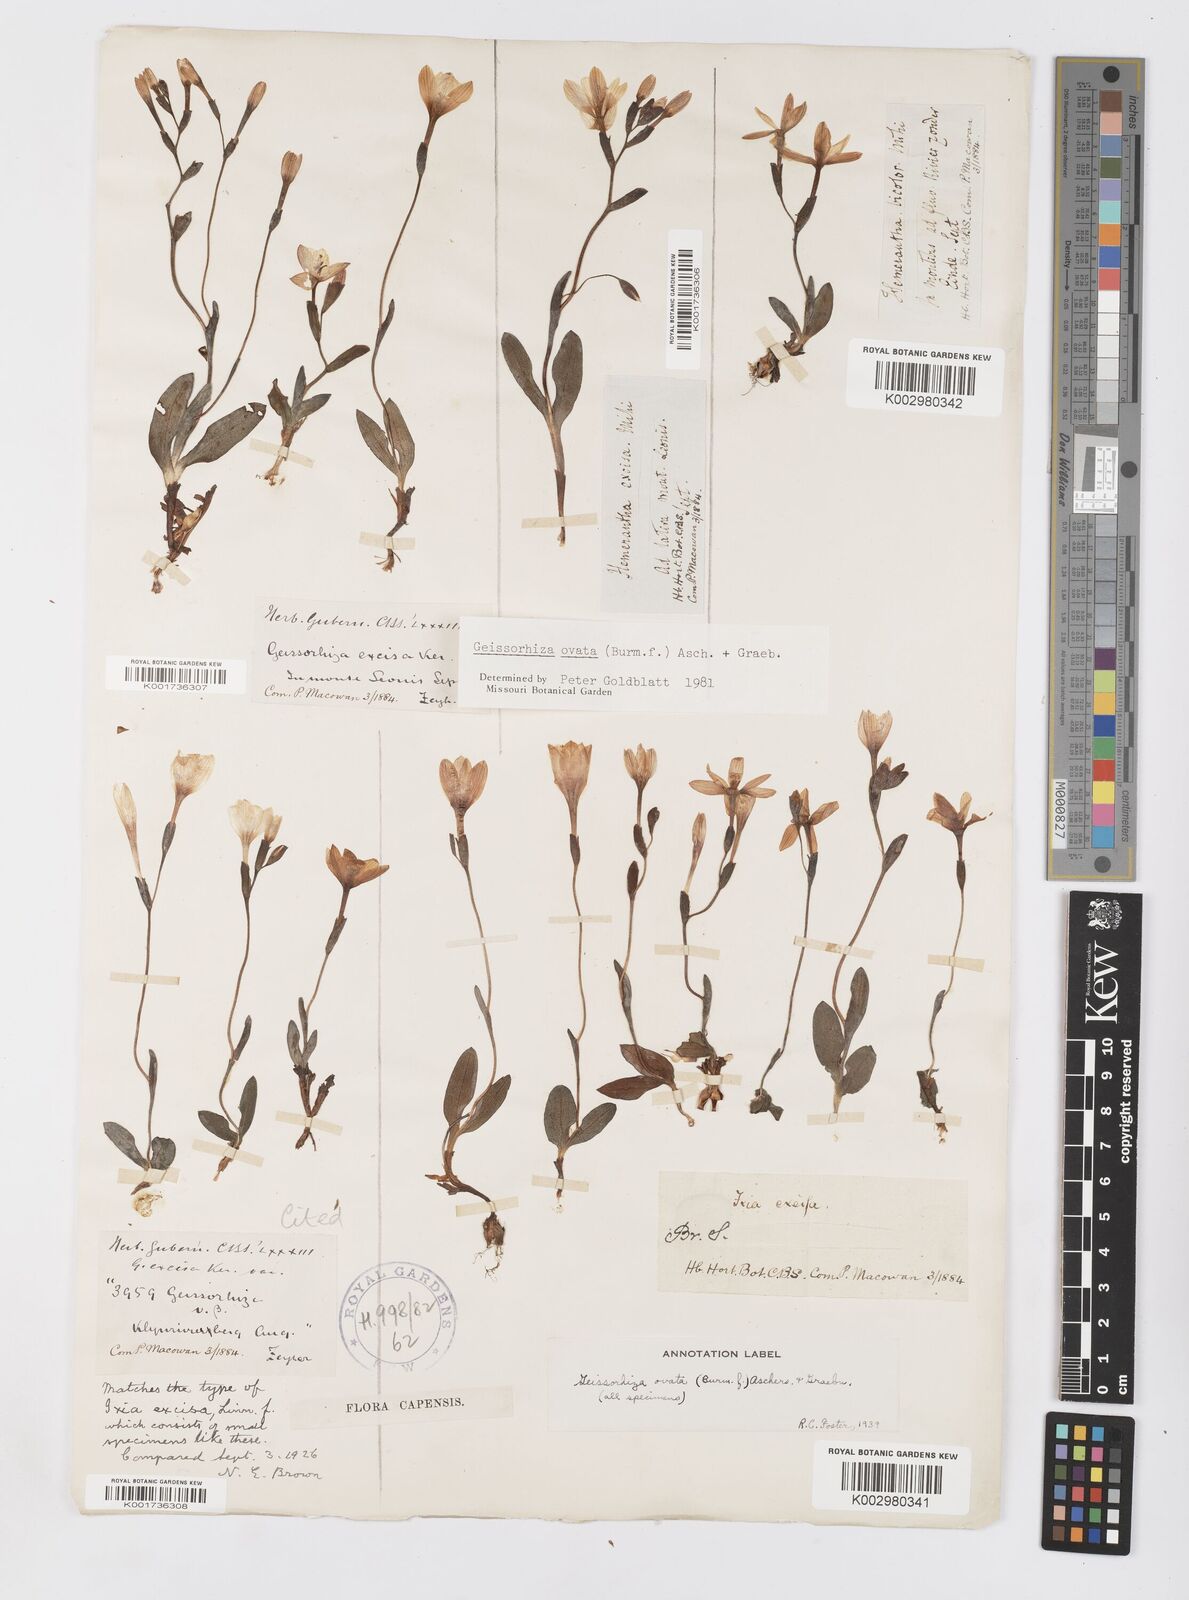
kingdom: Plantae
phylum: Tracheophyta
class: Liliopsida
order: Asparagales
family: Iridaceae
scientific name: Iridaceae
